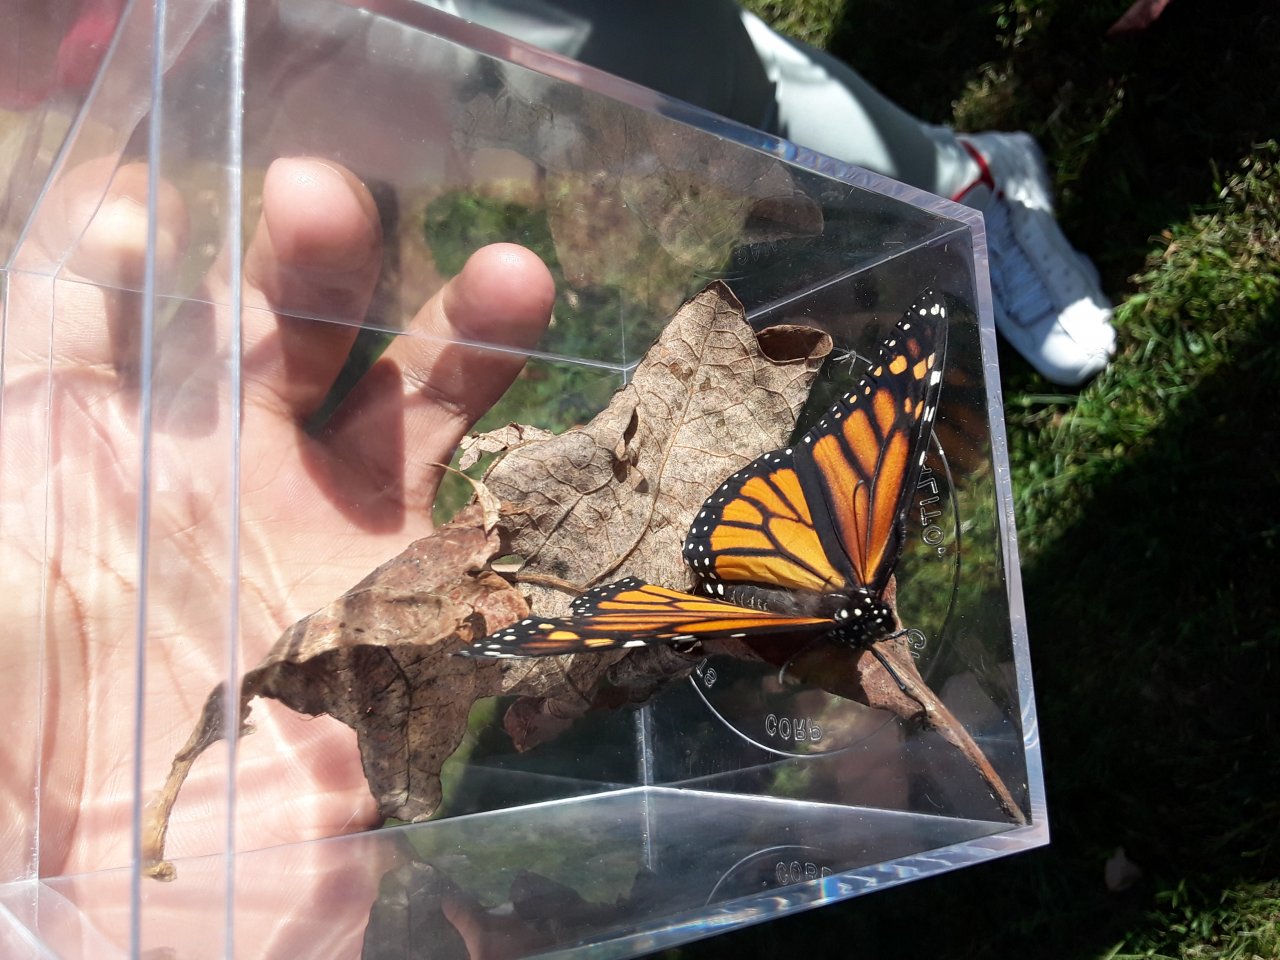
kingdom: Animalia
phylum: Arthropoda
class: Insecta
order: Lepidoptera
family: Nymphalidae
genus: Danaus
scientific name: Danaus plexippus
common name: Monarch
